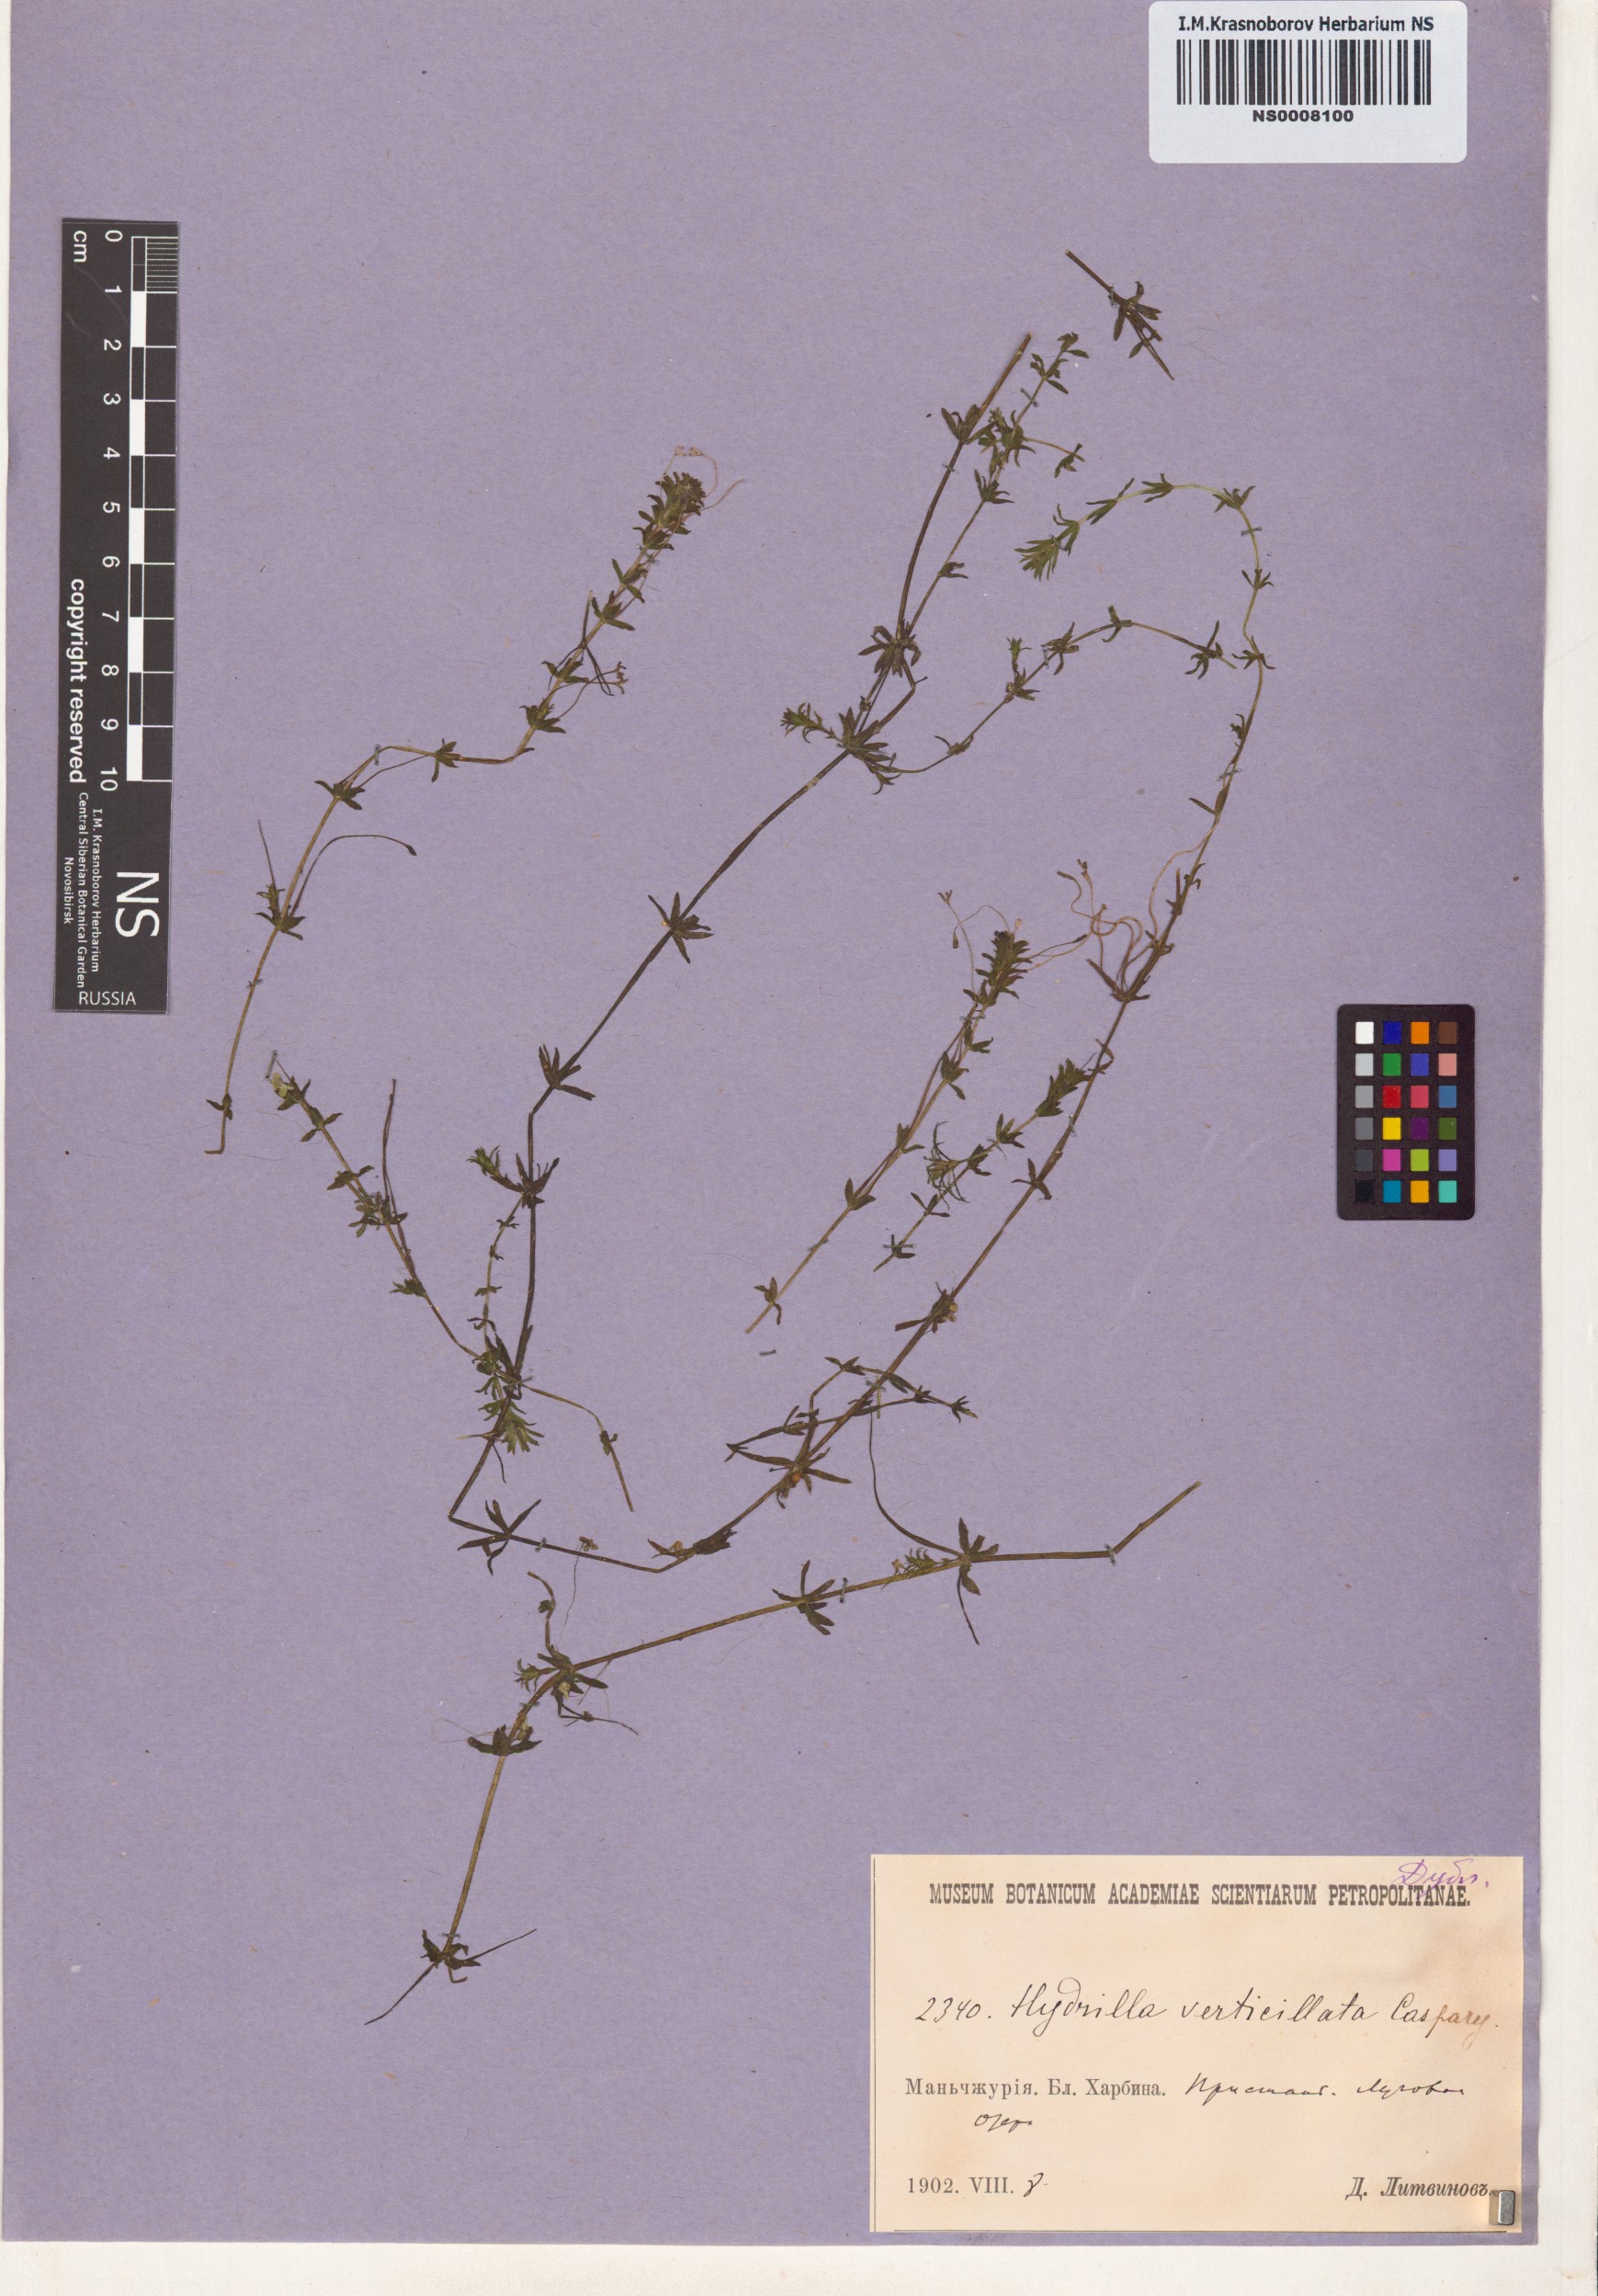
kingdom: Plantae
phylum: Tracheophyta
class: Liliopsida
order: Alismatales
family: Hydrocharitaceae
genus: Hydrilla
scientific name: Hydrilla verticillata
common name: Florida-elodea
